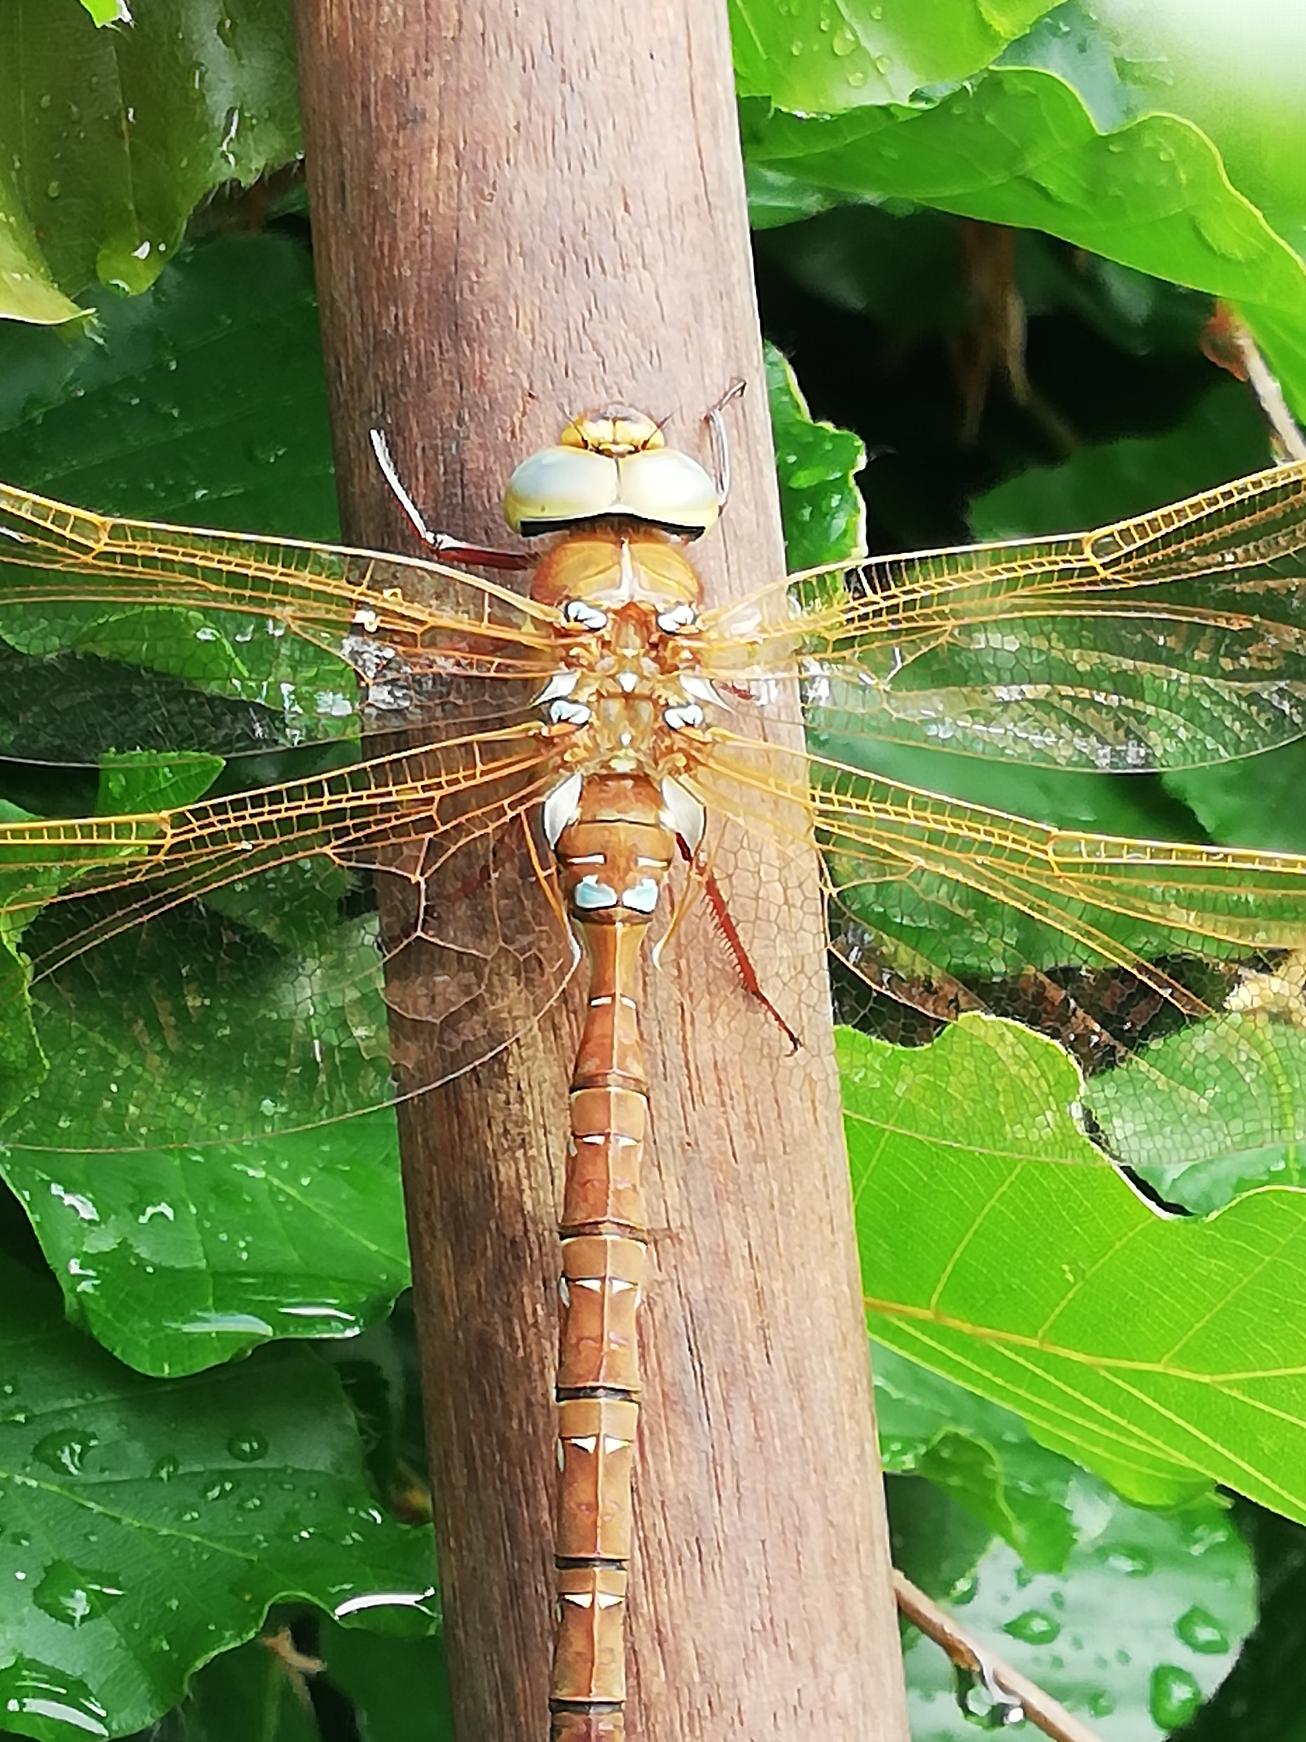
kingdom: Animalia
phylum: Arthropoda
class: Insecta
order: Odonata
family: Aeshnidae
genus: Aeshna
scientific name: Aeshna grandis
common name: Brun mosaikguldsmed
